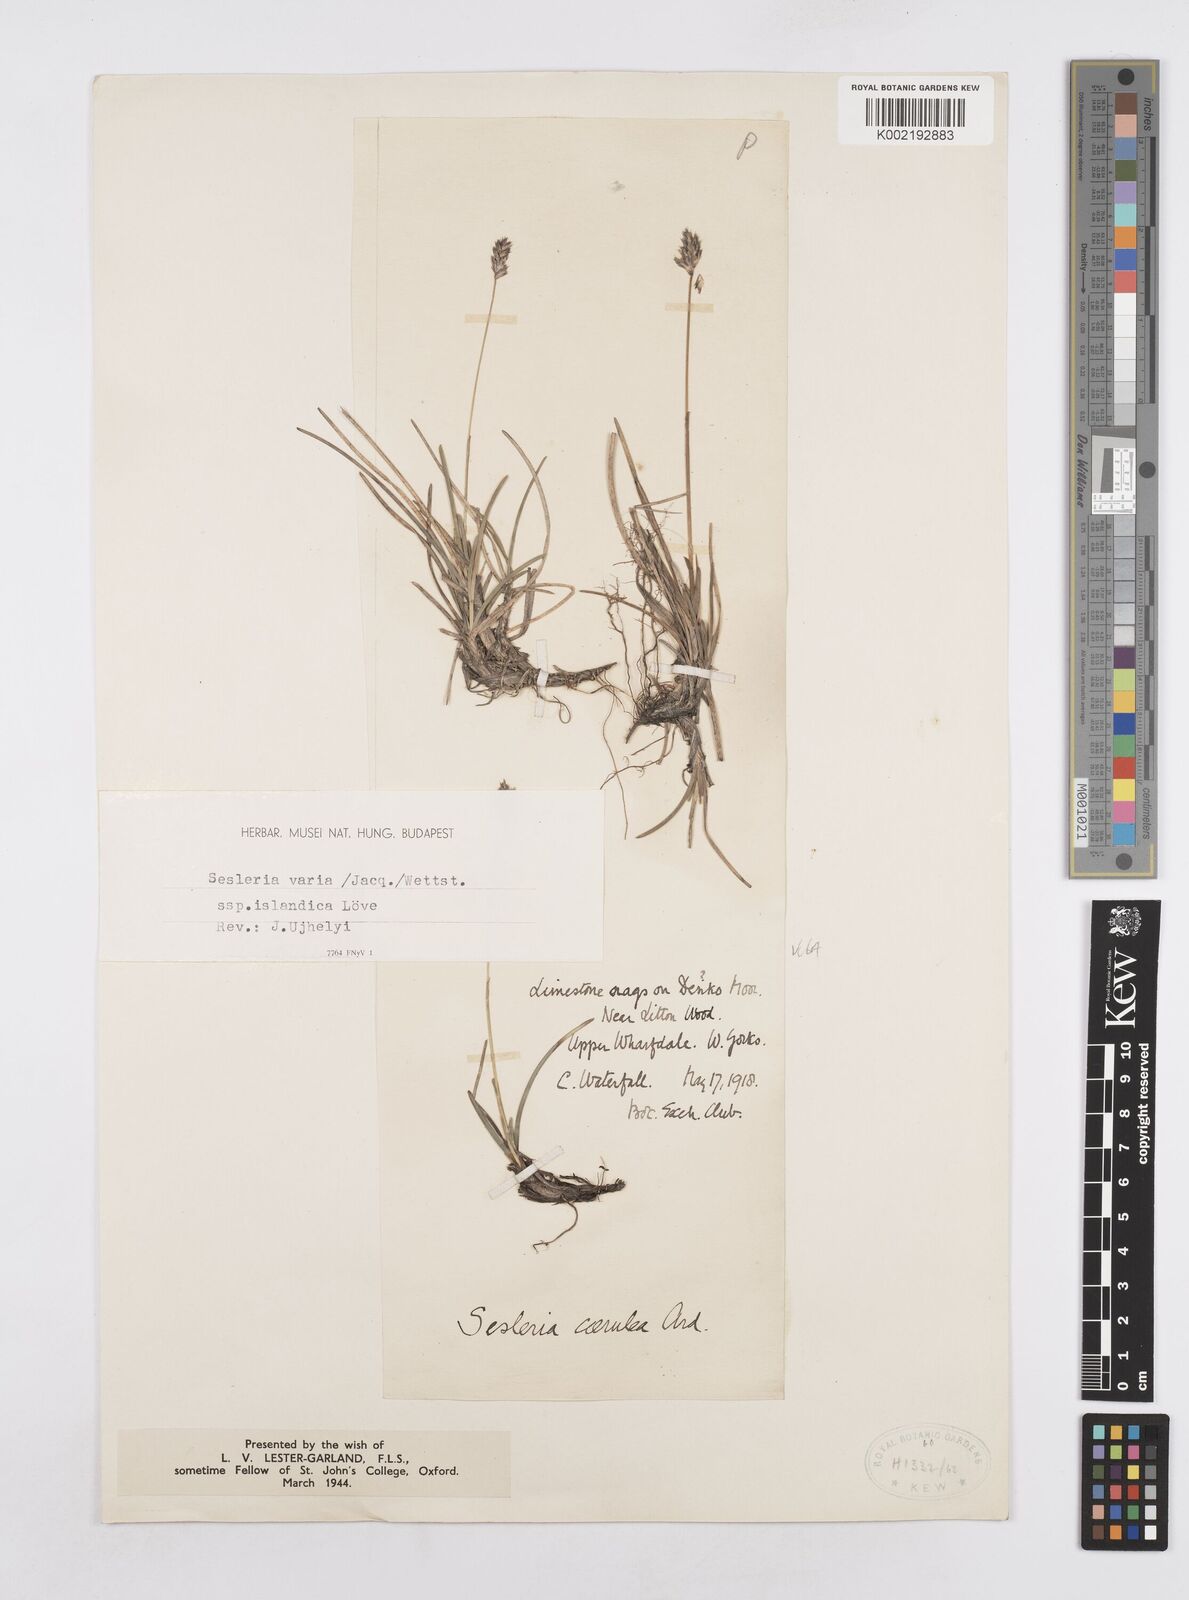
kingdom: Plantae
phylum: Tracheophyta
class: Liliopsida
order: Poales
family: Poaceae
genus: Sesleria
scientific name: Sesleria caerulea
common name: Blue moor-grass
